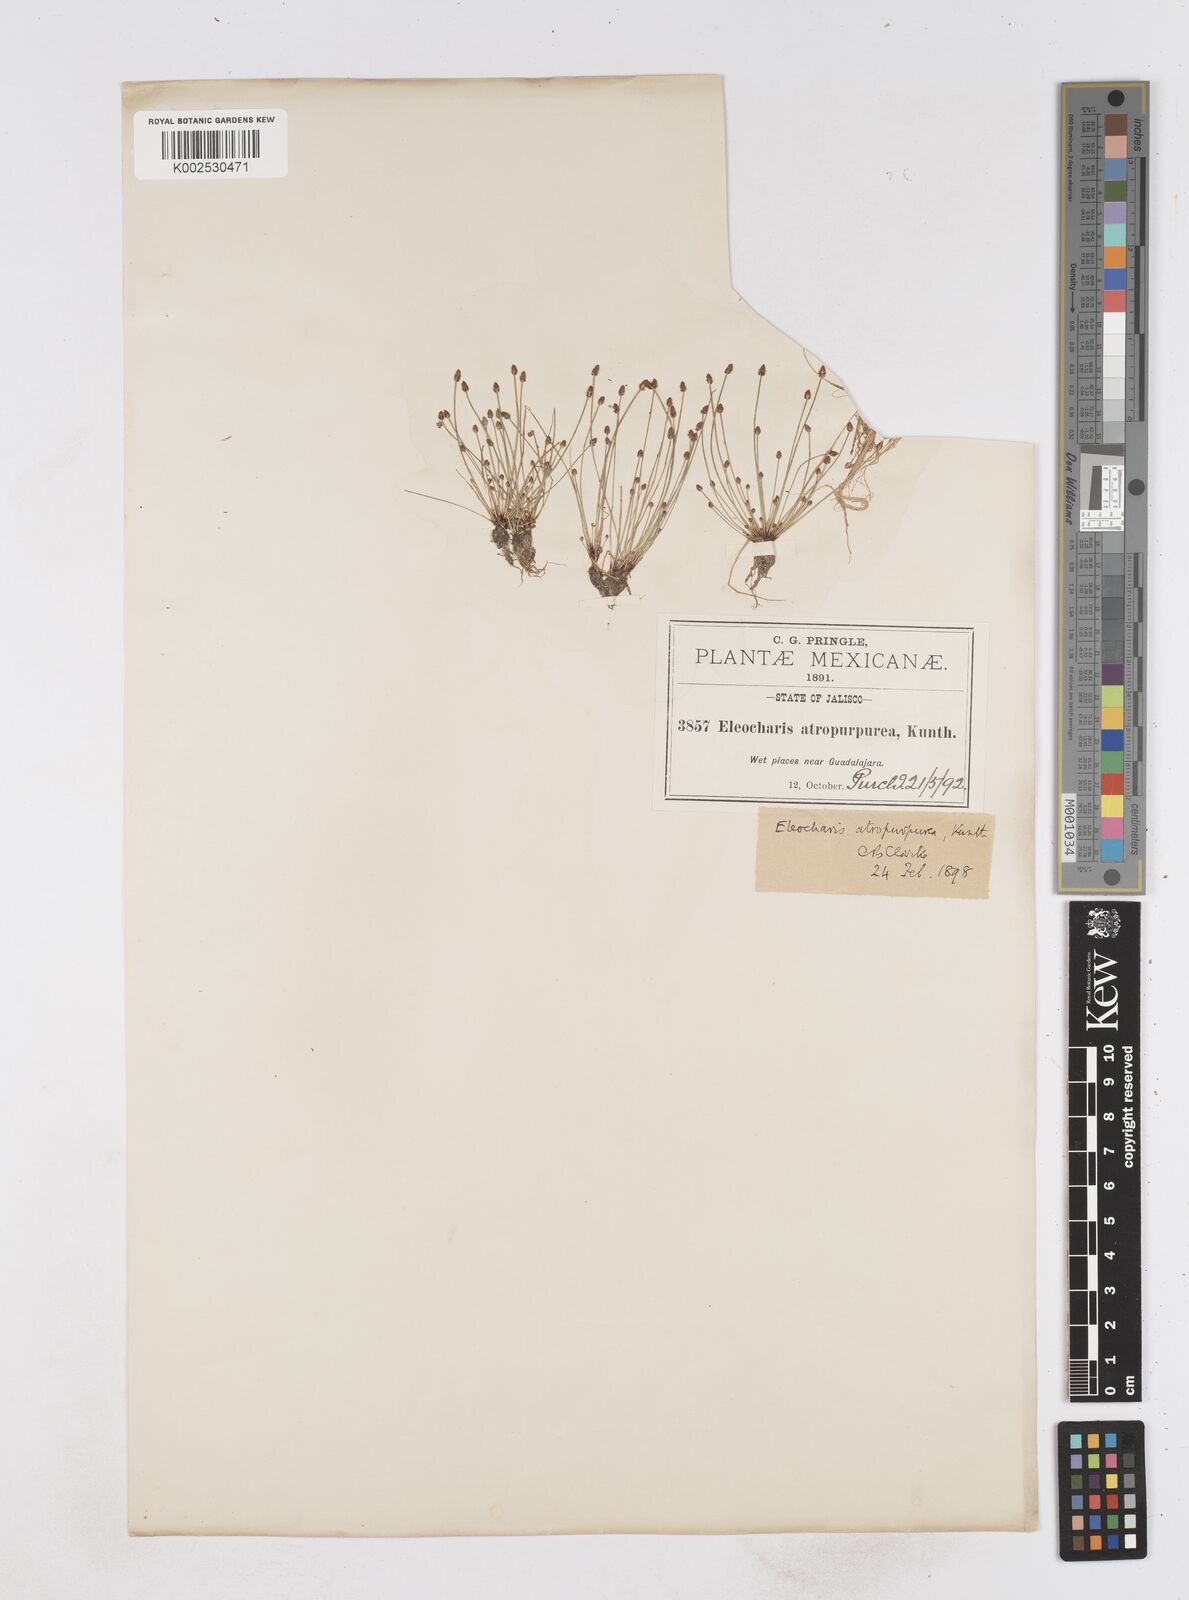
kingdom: Plantae
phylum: Tracheophyta
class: Liliopsida
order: Poales
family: Cyperaceae
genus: Eleocharis
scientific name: Eleocharis atropurpurea
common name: Purple spikerush
